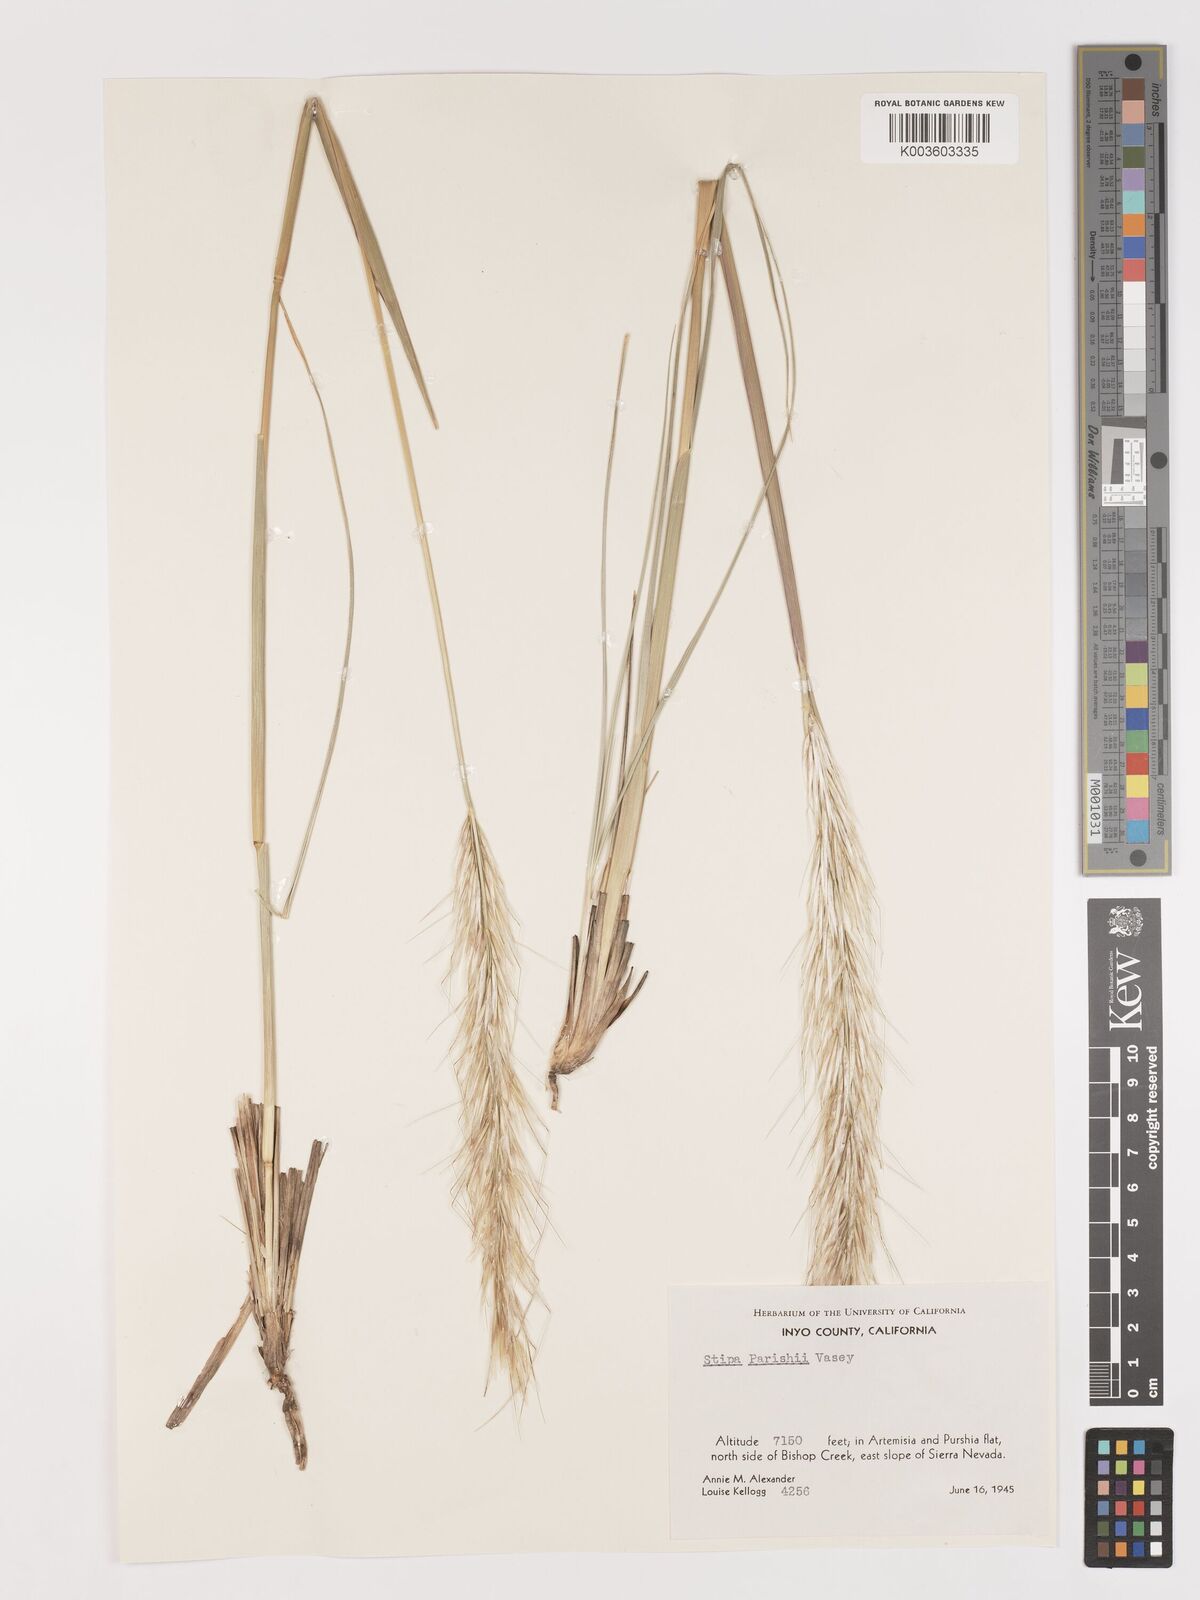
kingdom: Plantae
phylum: Tracheophyta
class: Liliopsida
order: Poales
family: Poaceae
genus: Hesperostipa
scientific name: Hesperostipa comata
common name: Needle-and-thread grass
